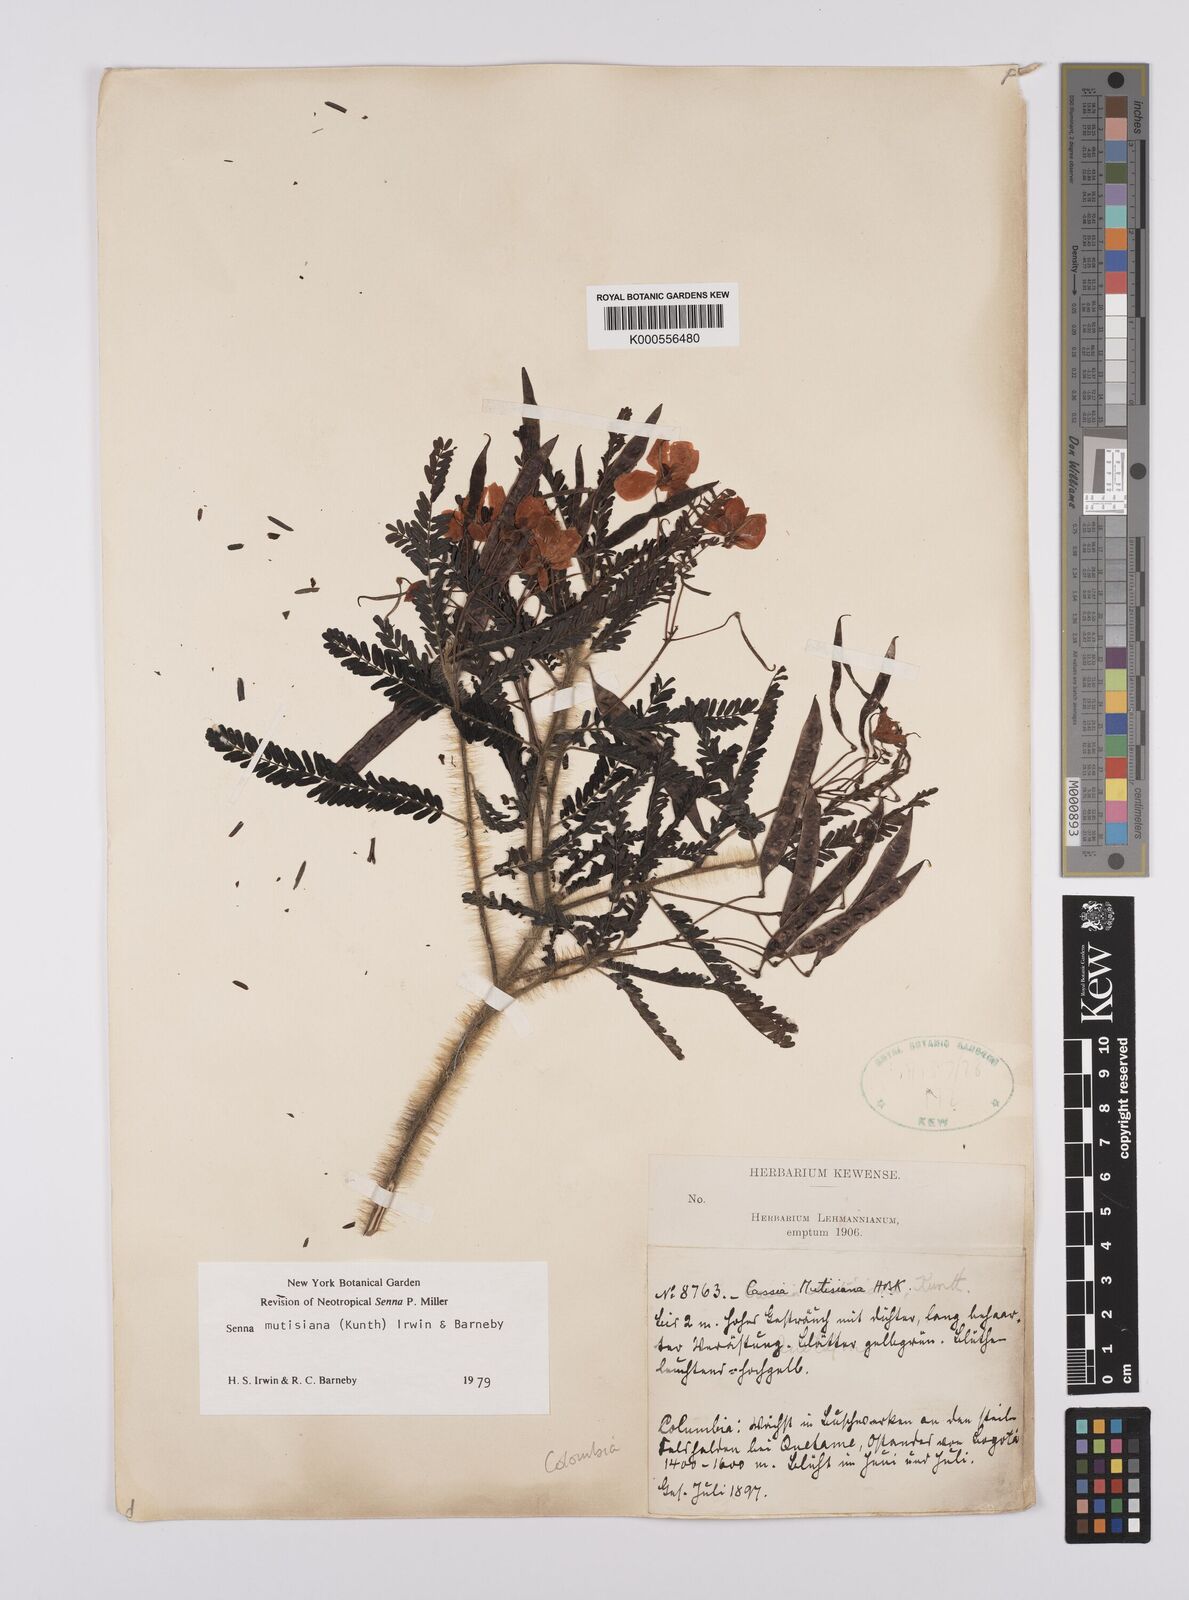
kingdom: Plantae
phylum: Tracheophyta
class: Magnoliopsida
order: Fabales
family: Fabaceae
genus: Senna
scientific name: Senna mutisiana
